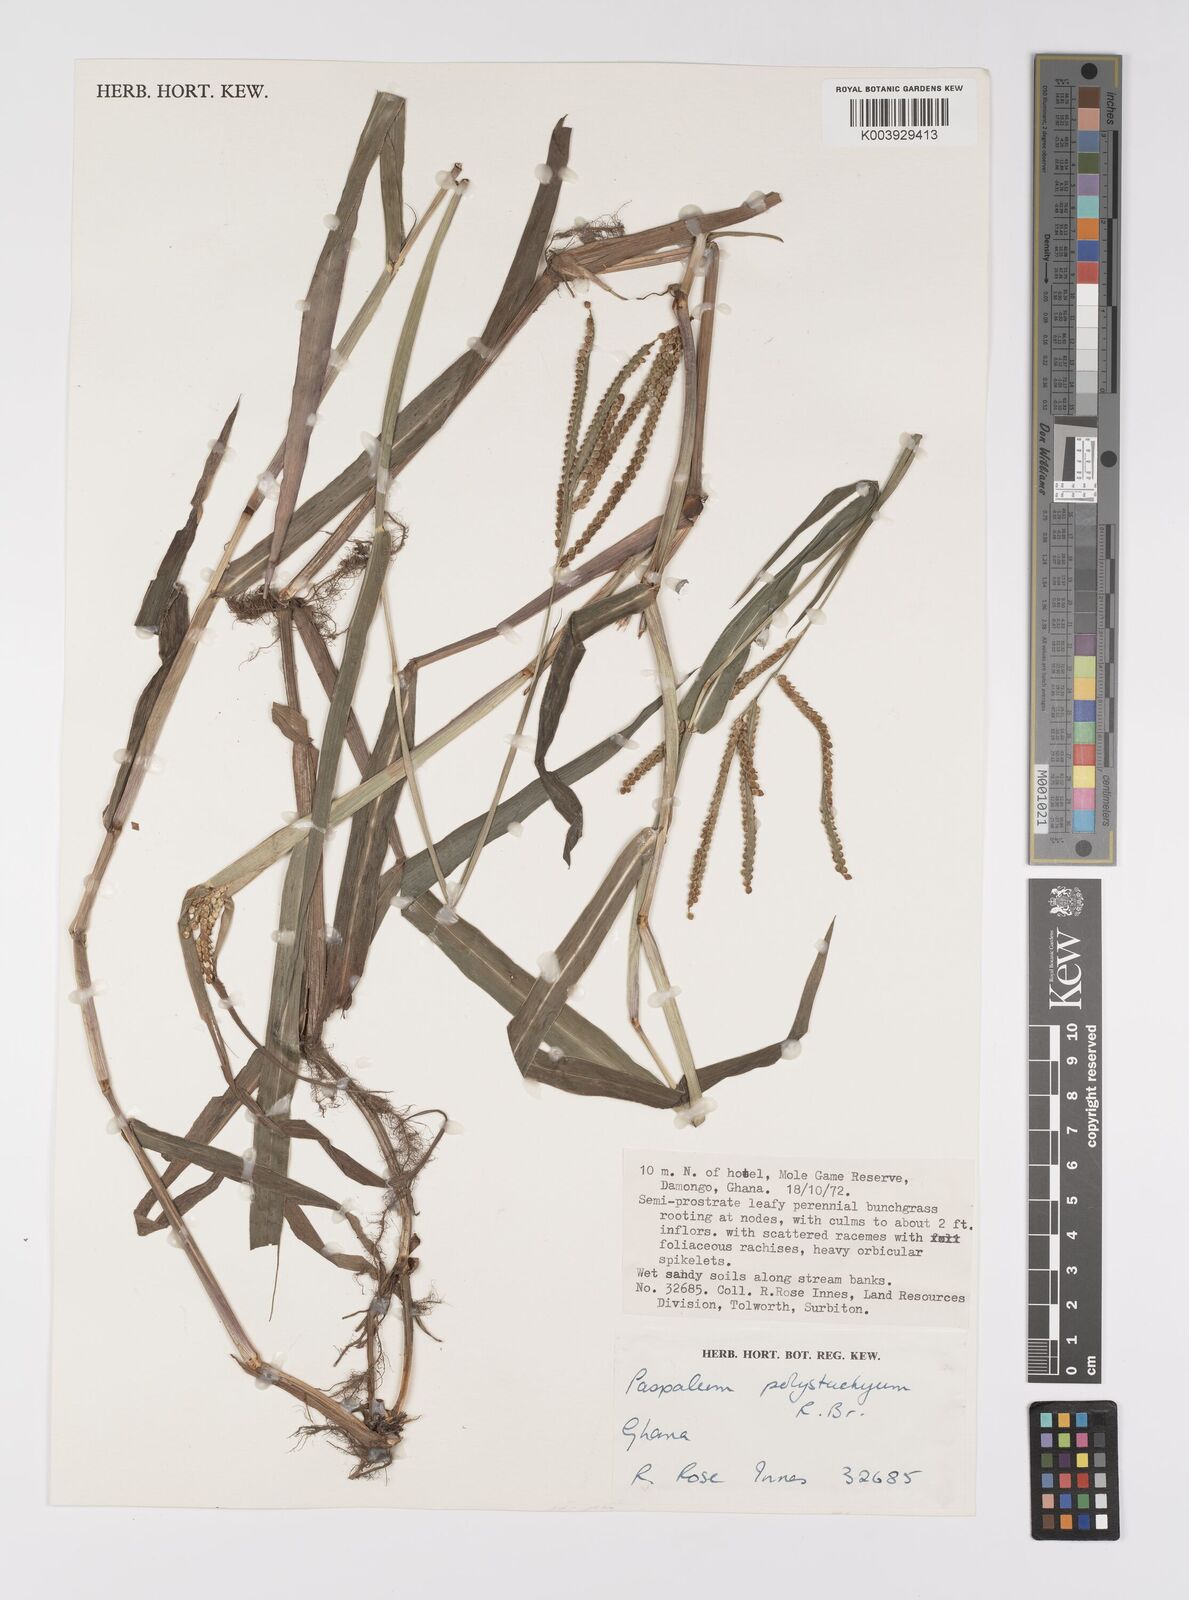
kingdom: Plantae
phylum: Tracheophyta
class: Liliopsida
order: Poales
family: Poaceae
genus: Paspalum
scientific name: Paspalum scrobiculatum
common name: Kodo millet
